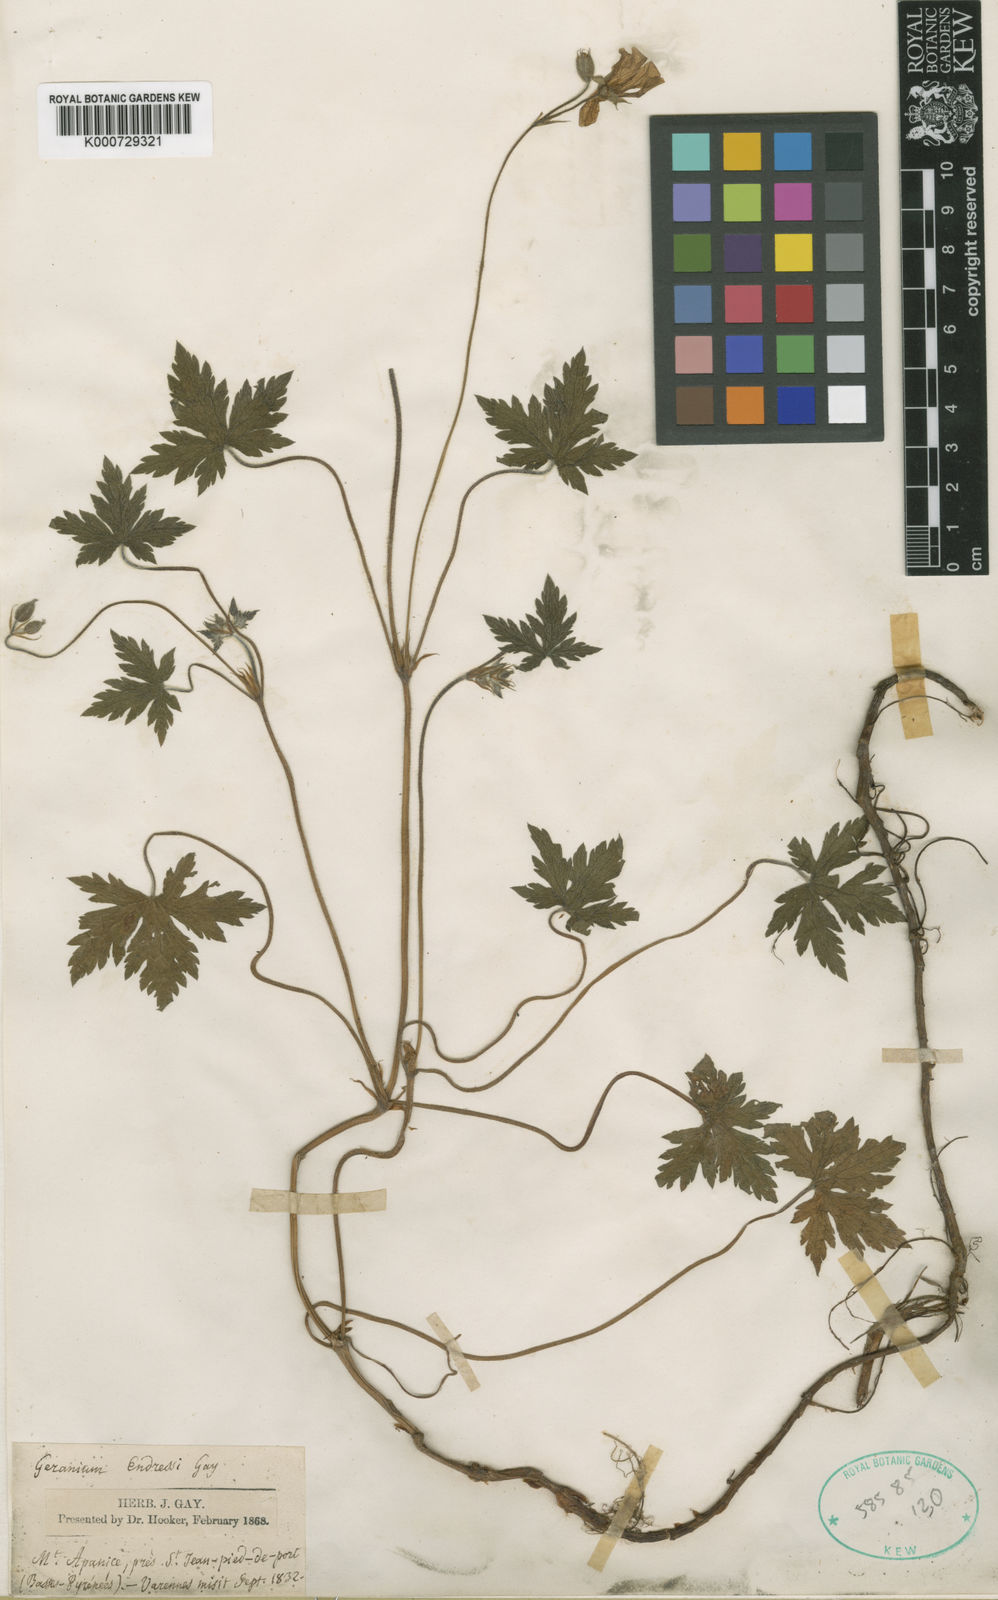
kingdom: Plantae
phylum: Tracheophyta
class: Magnoliopsida
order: Geraniales
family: Geraniaceae
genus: Geranium
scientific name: Geranium endressii
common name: French crane's-bill
